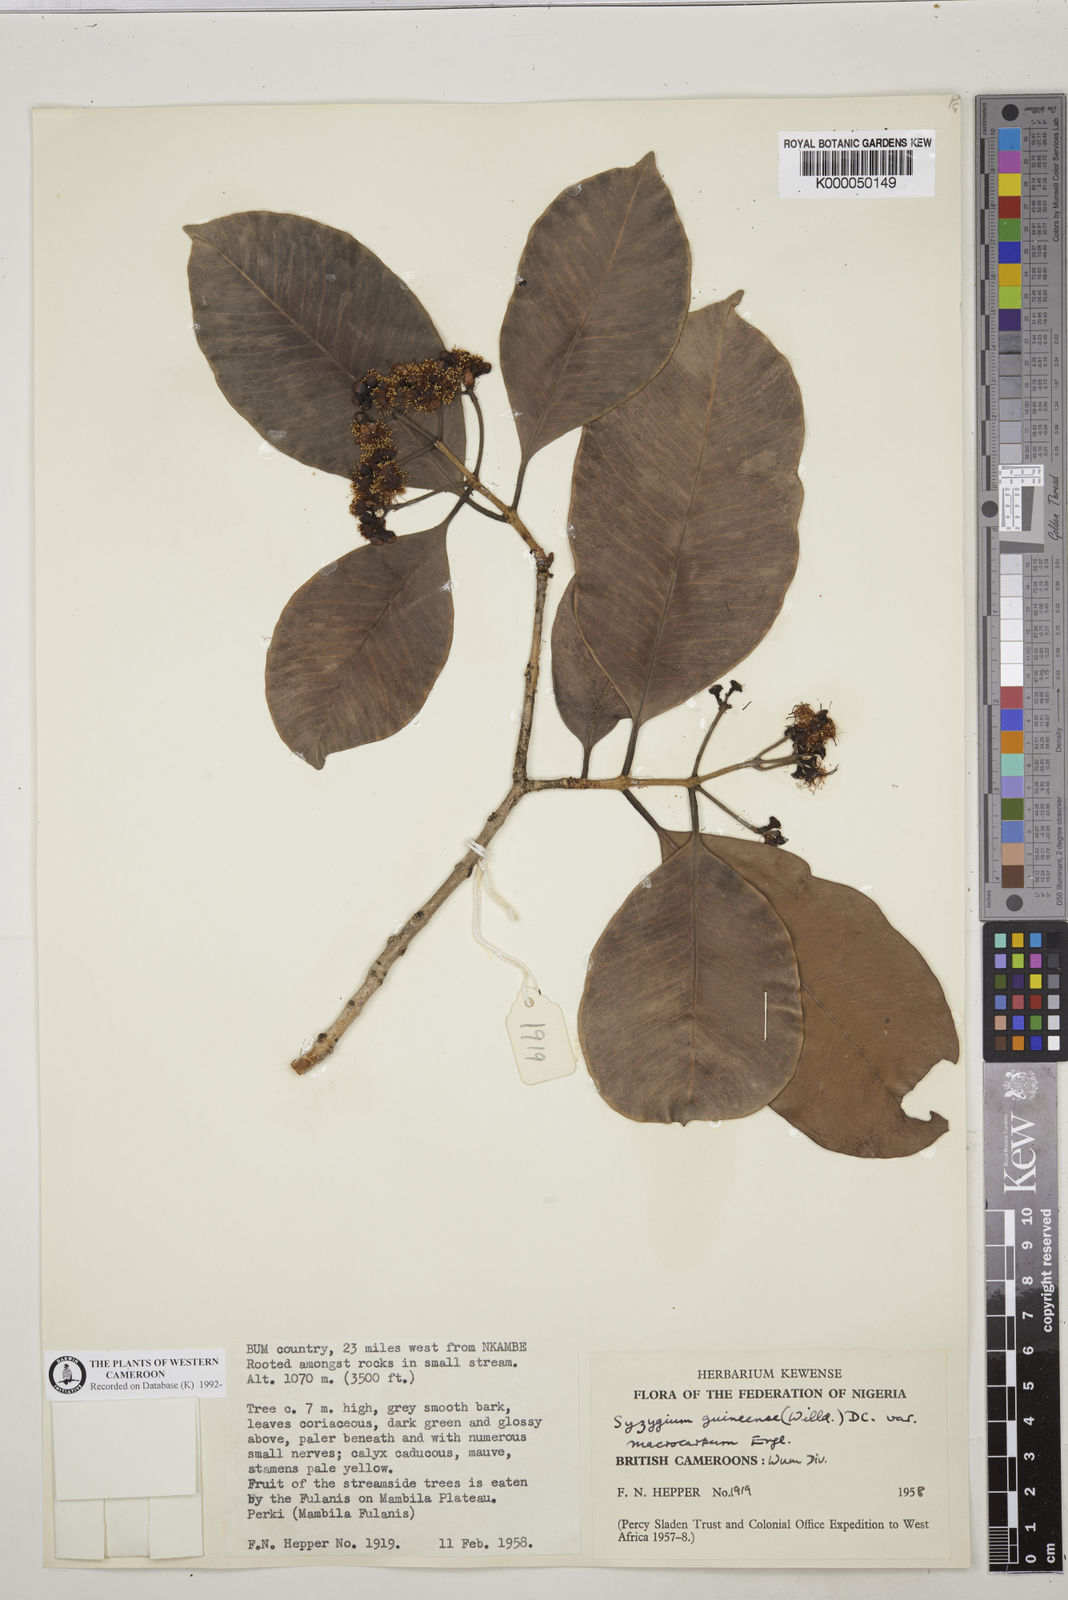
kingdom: Plantae
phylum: Tracheophyta
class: Magnoliopsida
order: Myrtales
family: Myrtaceae
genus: Syzygium
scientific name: Syzygium guineense
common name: Water-pear
